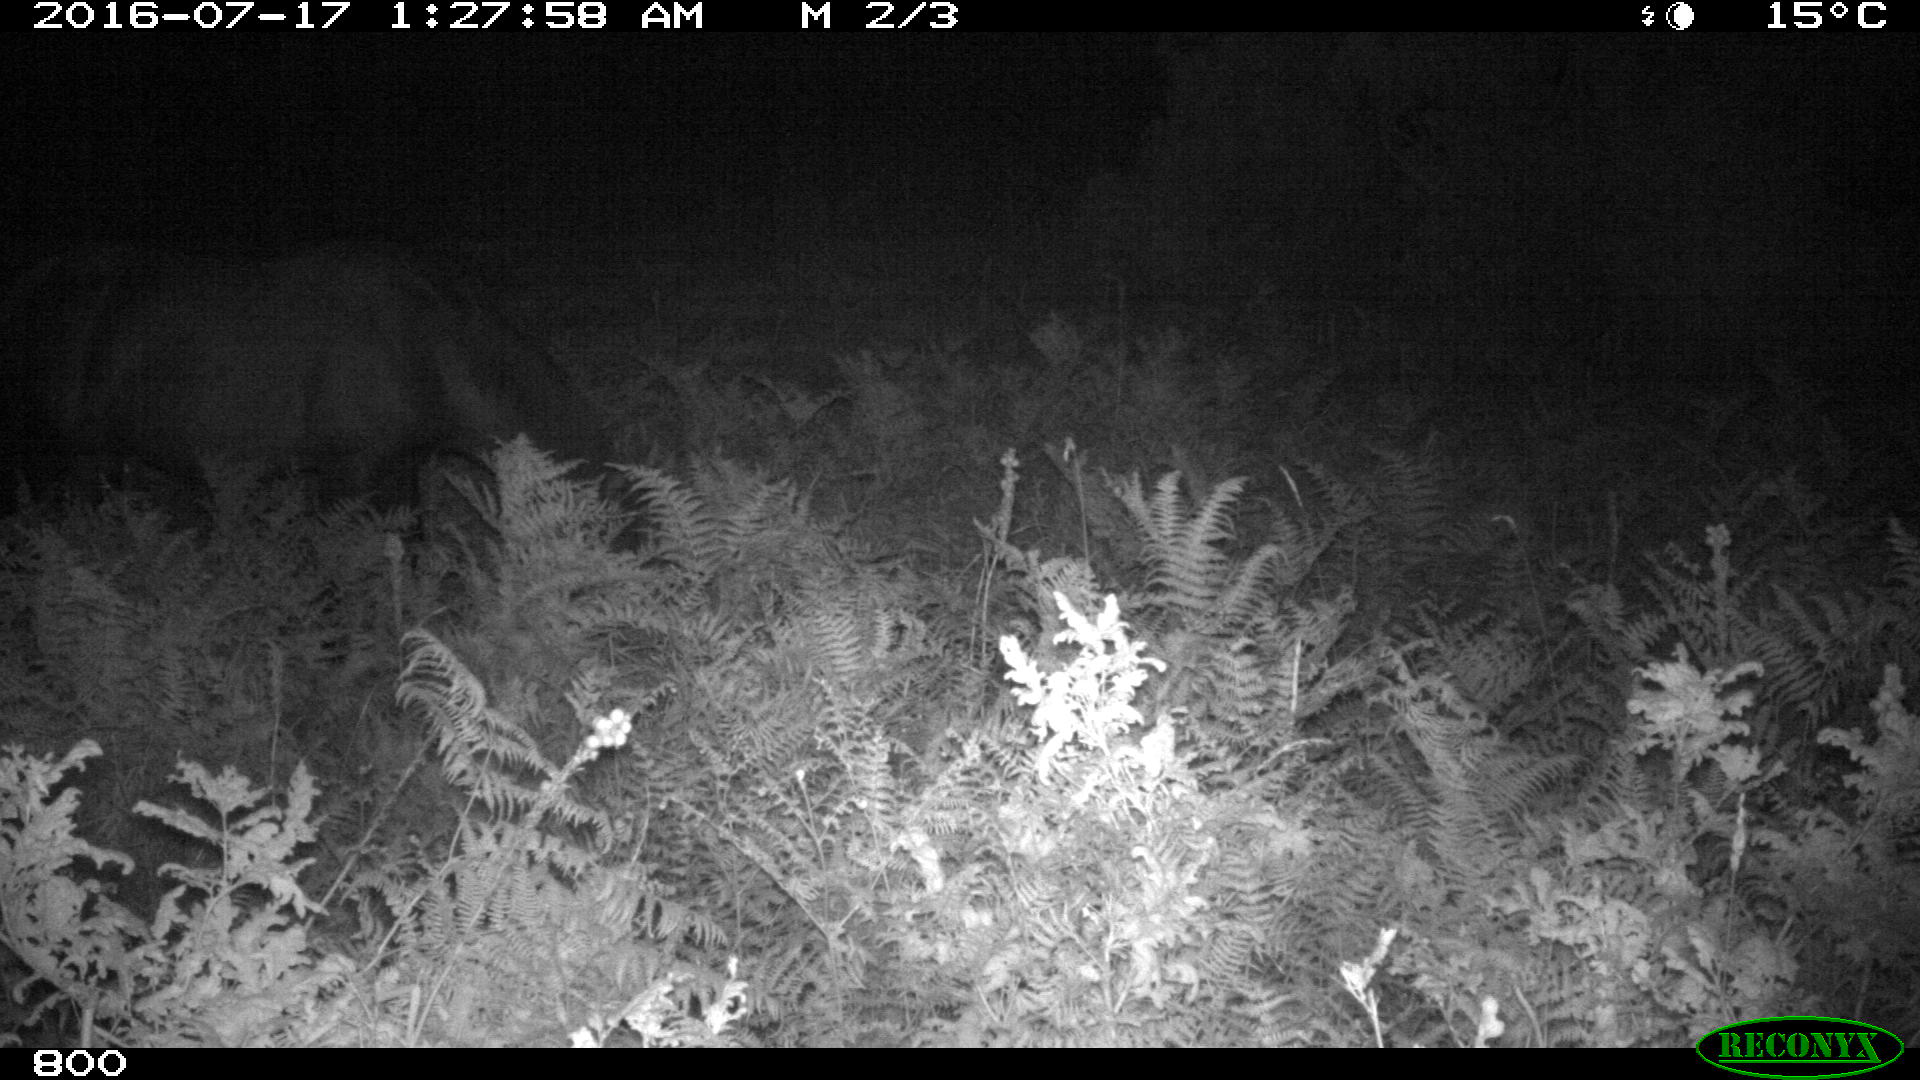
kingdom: Animalia
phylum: Chordata
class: Mammalia
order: Perissodactyla
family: Equidae
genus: Equus
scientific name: Equus caballus
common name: Horse
